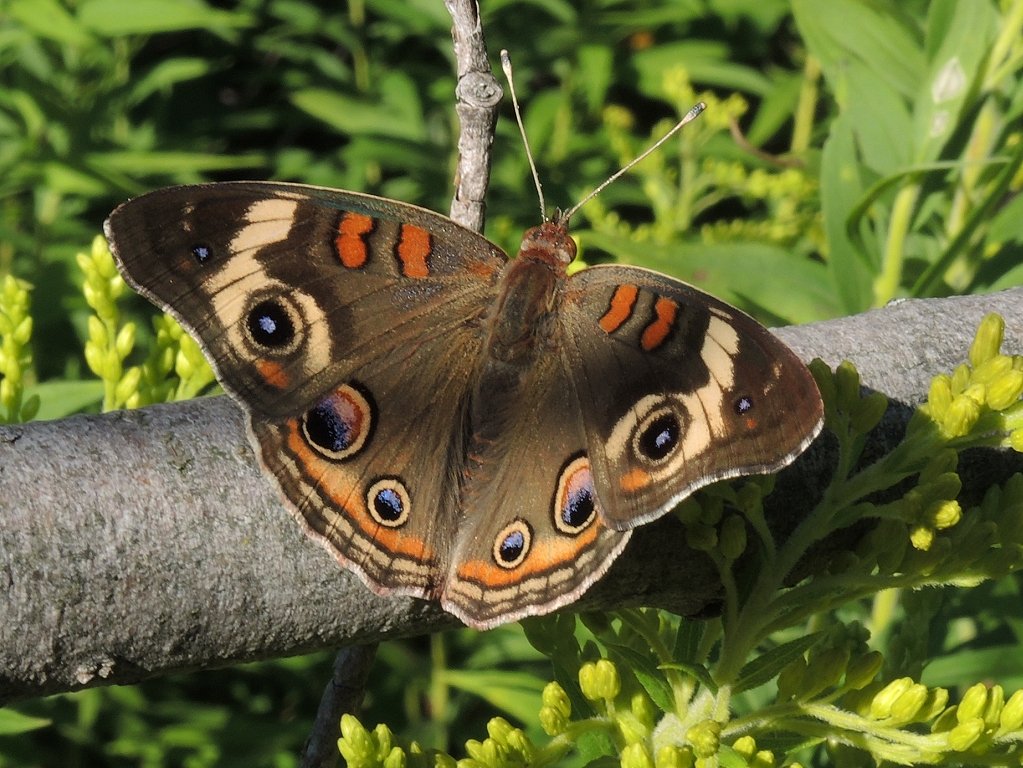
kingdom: Animalia
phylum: Arthropoda
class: Insecta
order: Lepidoptera
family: Nymphalidae
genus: Junonia
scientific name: Junonia coenia
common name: Common Buckeye
